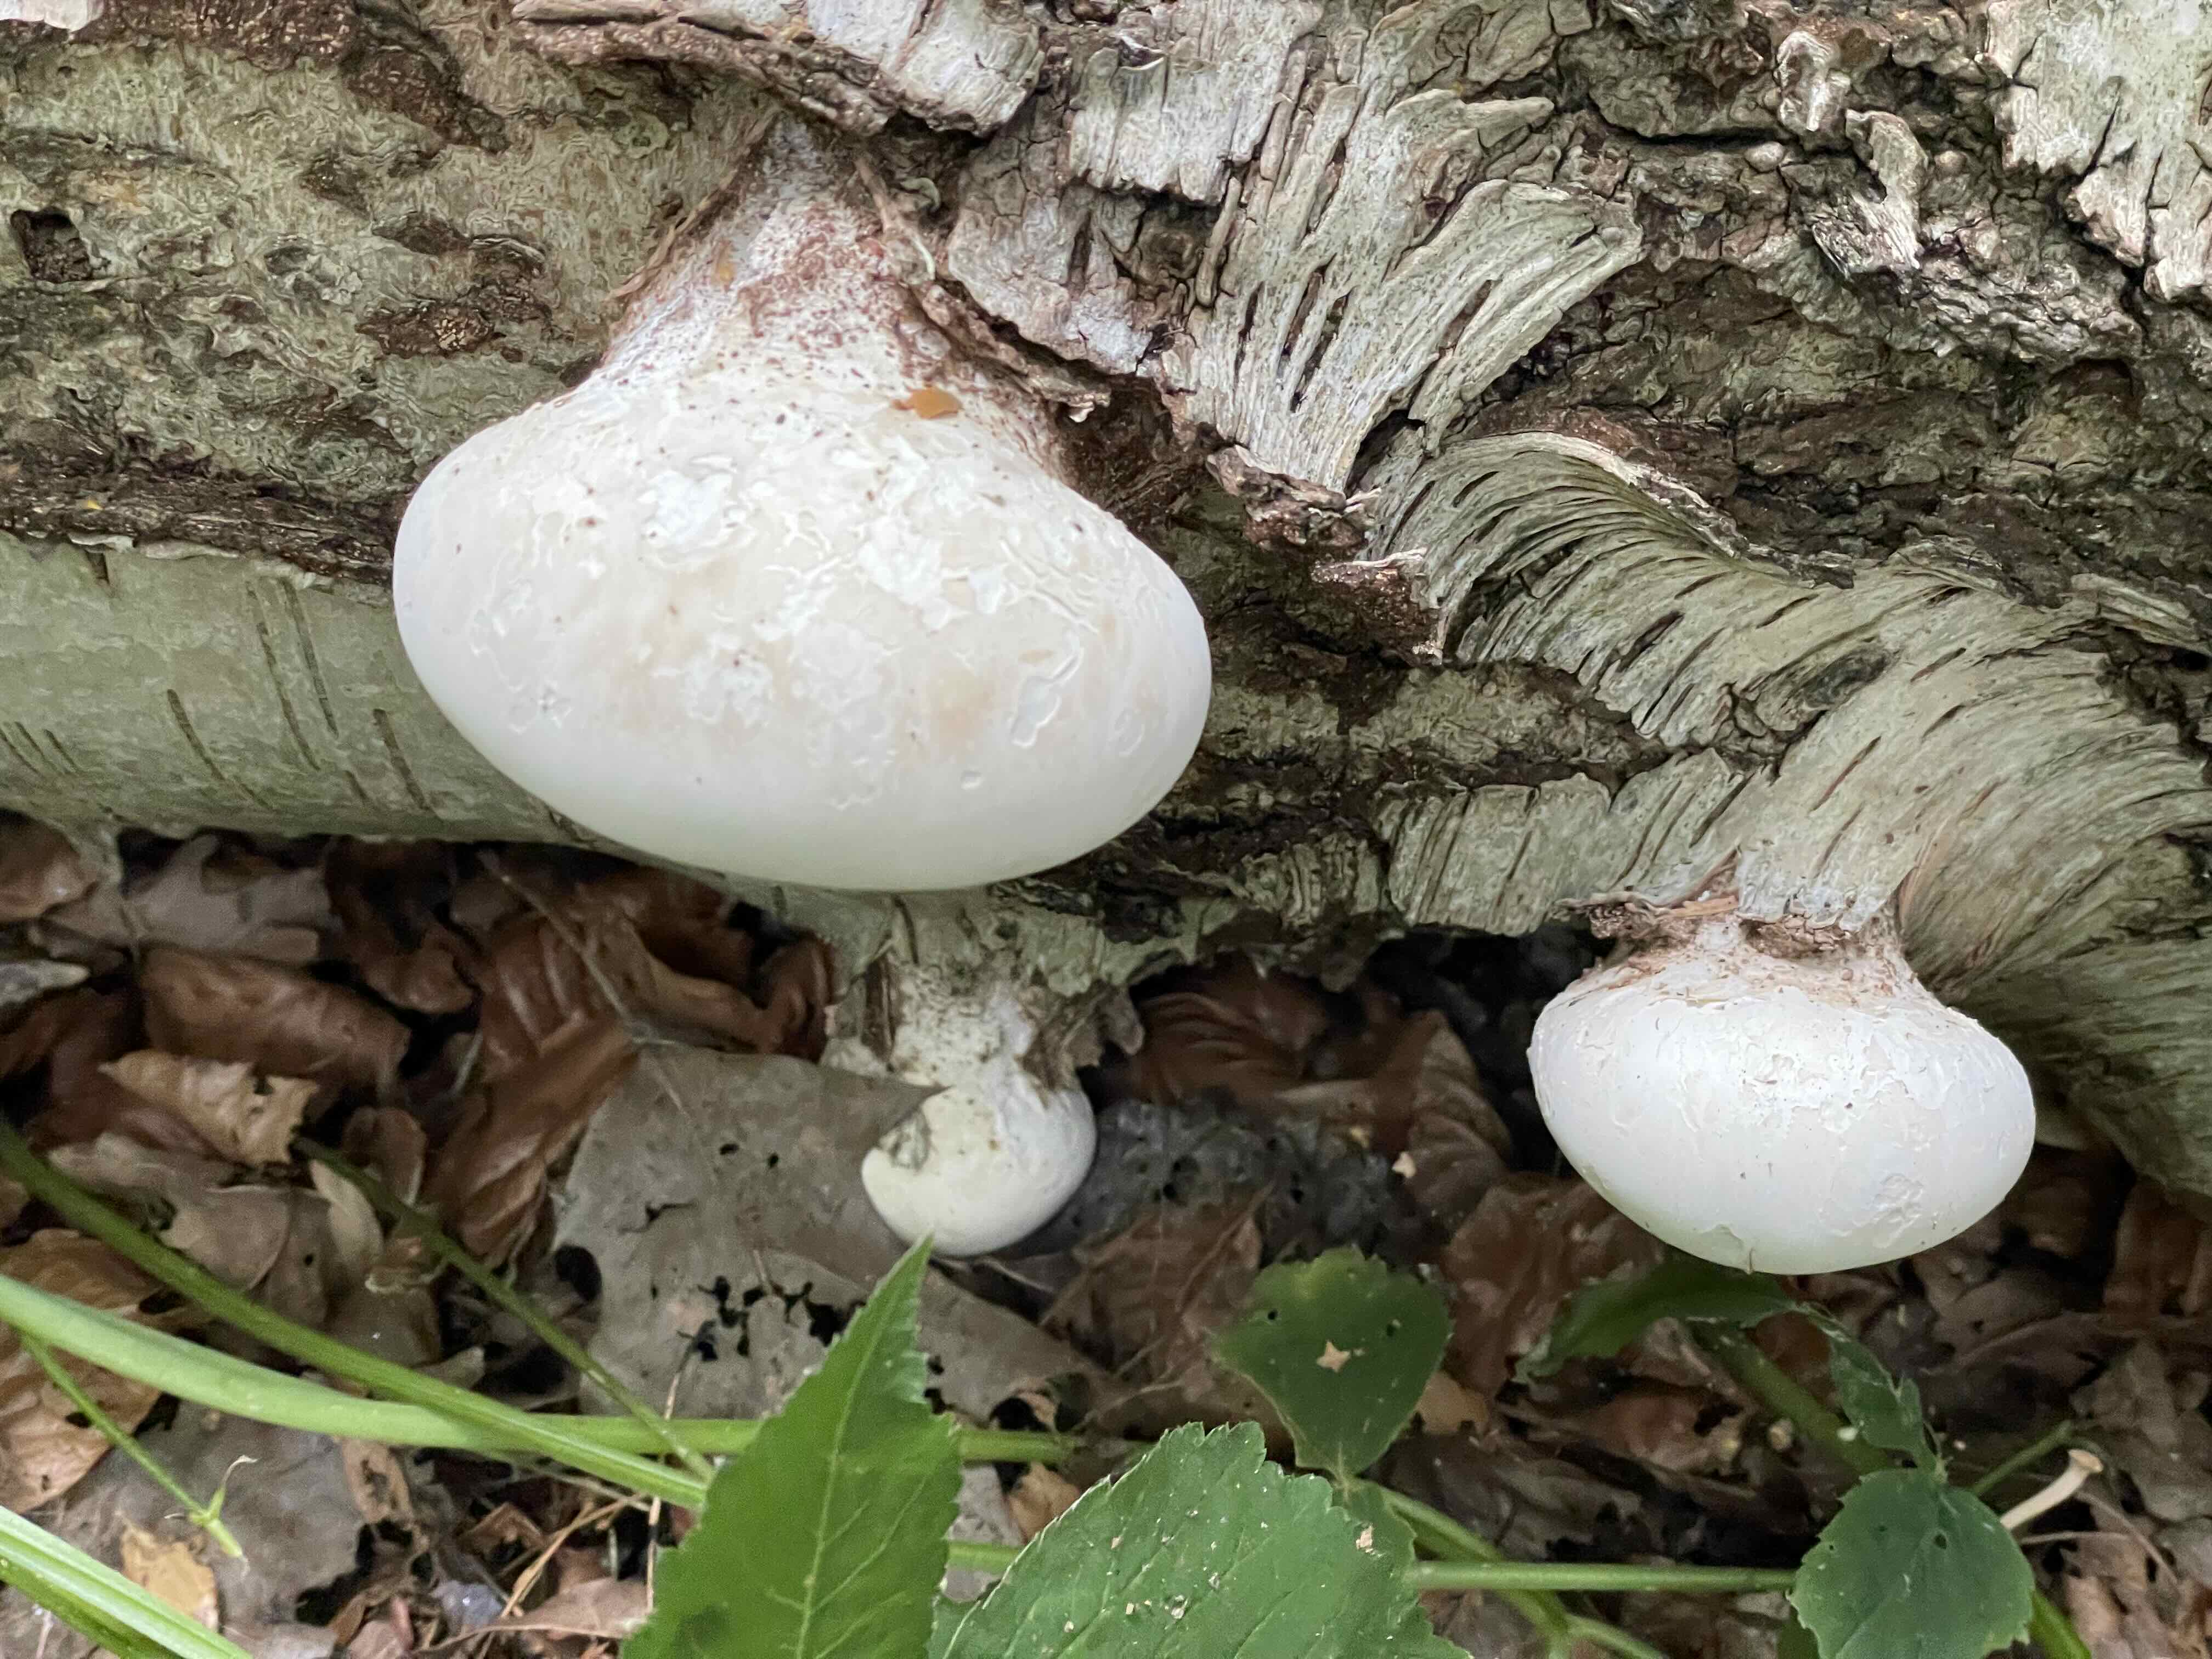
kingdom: Fungi
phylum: Basidiomycota
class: Agaricomycetes
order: Polyporales
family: Fomitopsidaceae
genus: Fomitopsis
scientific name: Fomitopsis betulina
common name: birkeporesvamp
